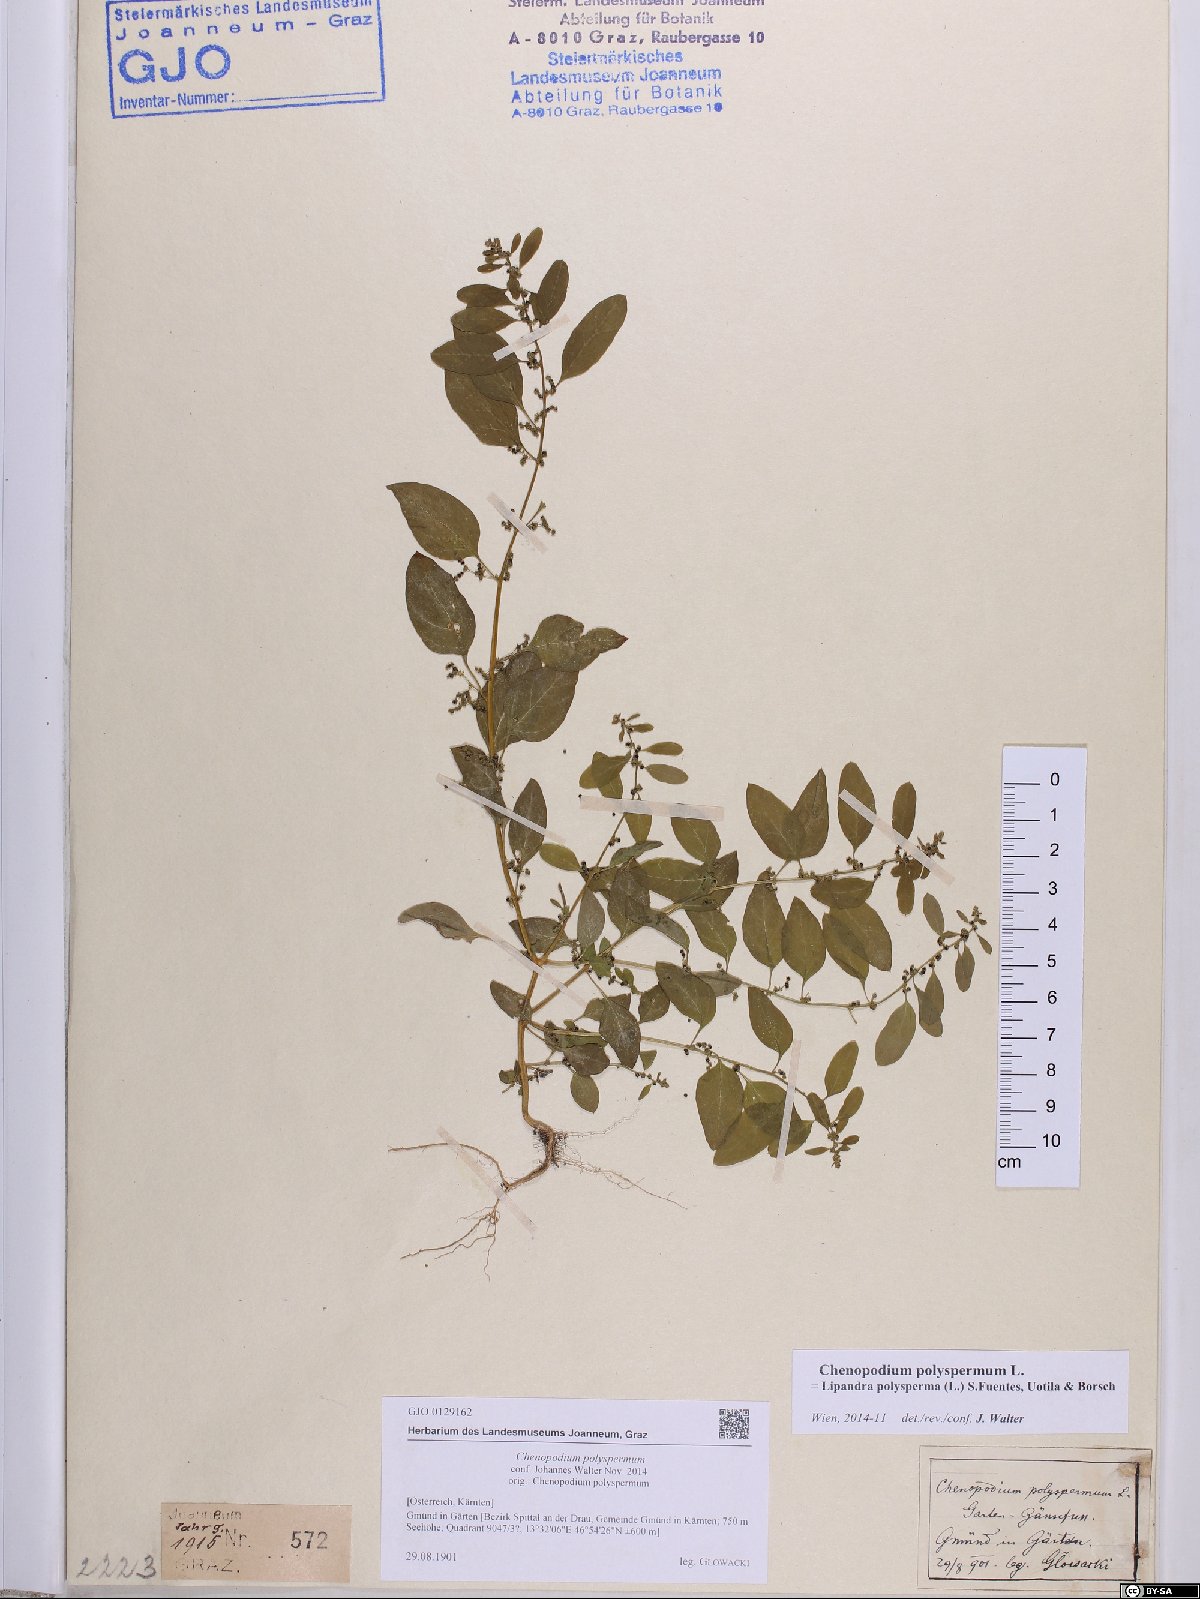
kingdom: Plantae
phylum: Tracheophyta
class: Magnoliopsida
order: Caryophyllales
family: Amaranthaceae
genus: Lipandra
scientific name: Lipandra polysperma
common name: Many-seed goosefoot
